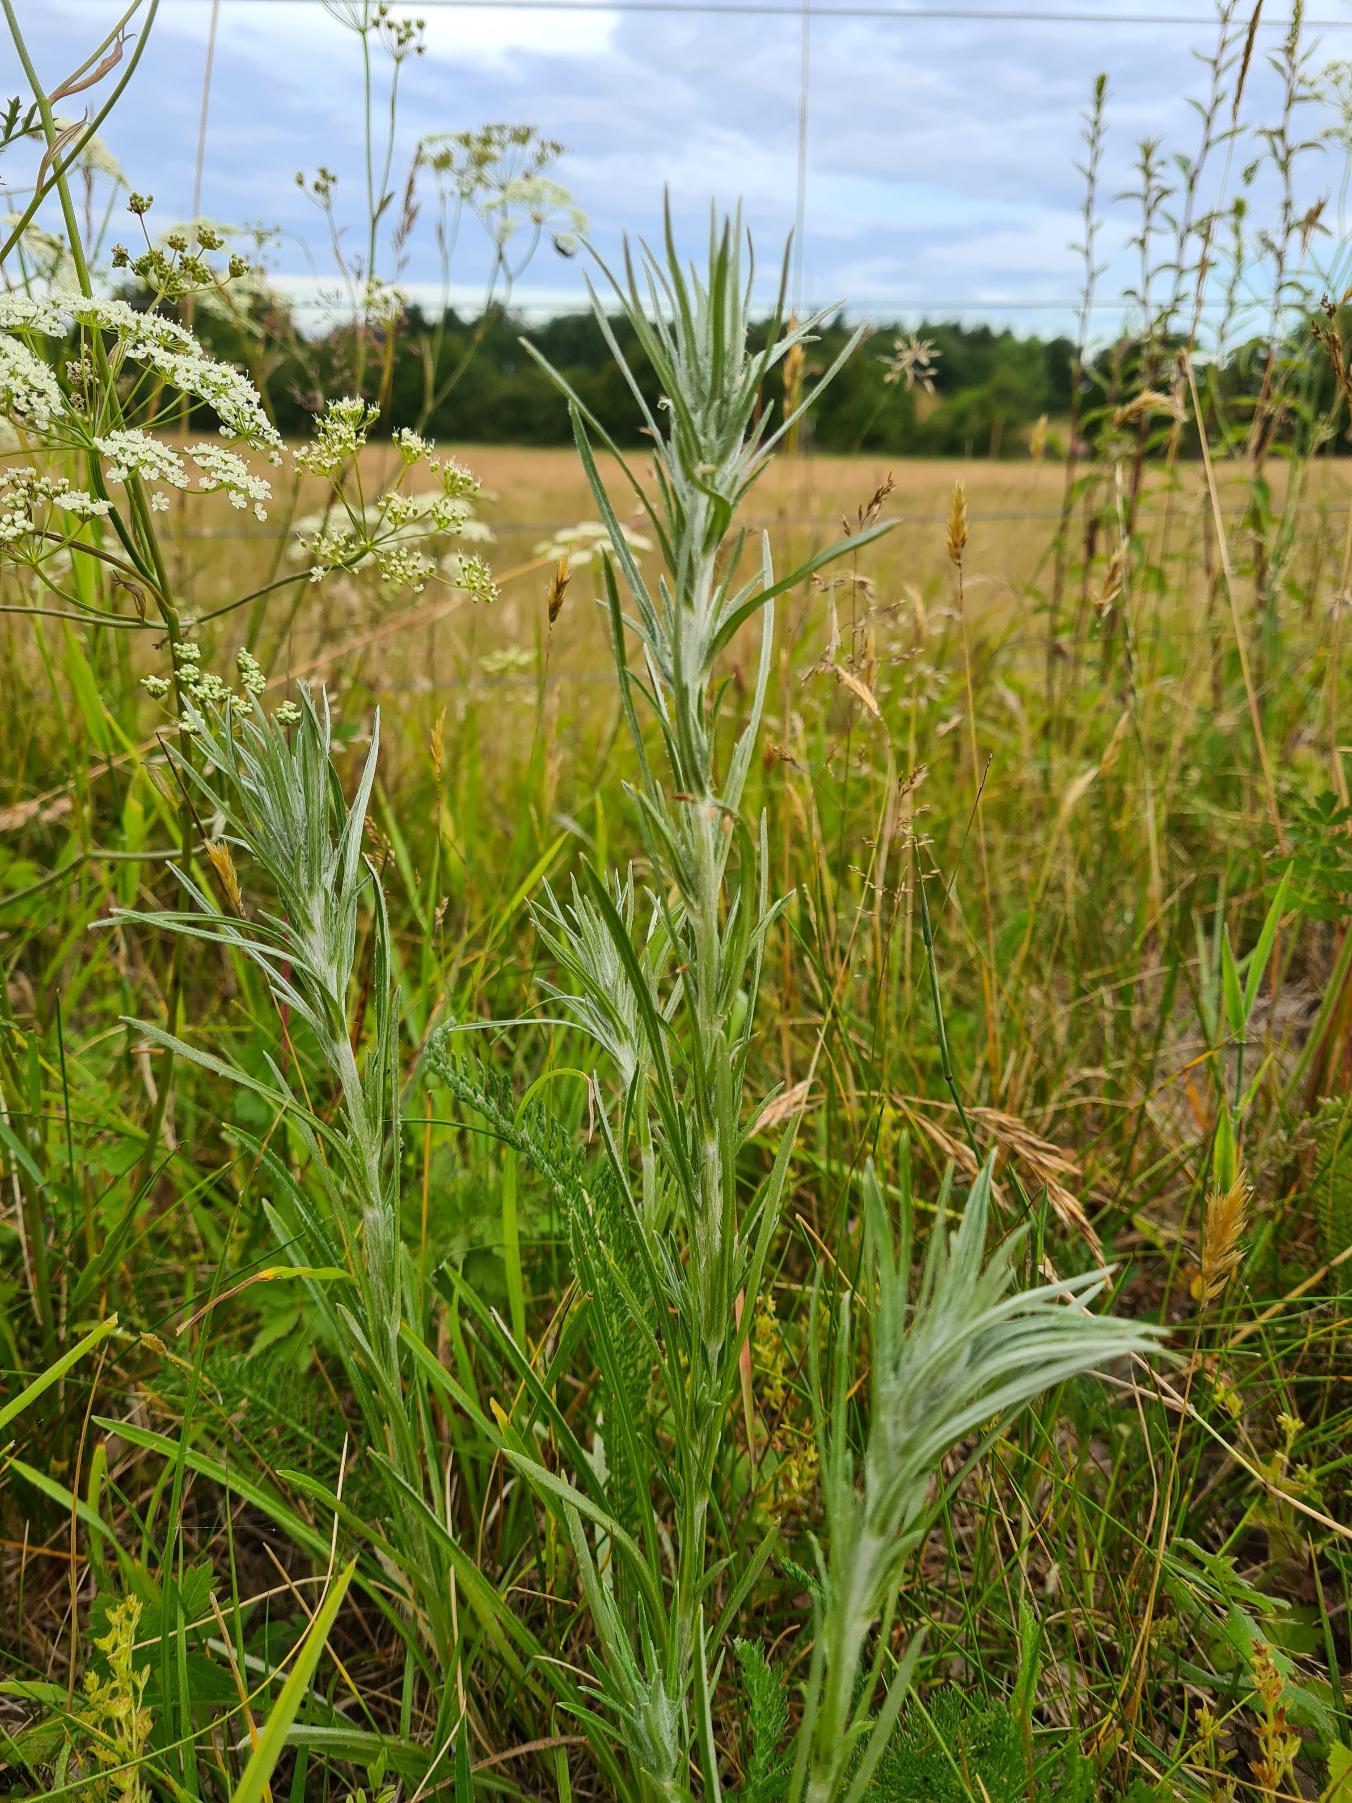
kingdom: Plantae
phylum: Tracheophyta
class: Magnoliopsida
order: Asterales
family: Asteraceae
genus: Omalotheca
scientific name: Omalotheca sylvatica
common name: Rank evighedsblomst
